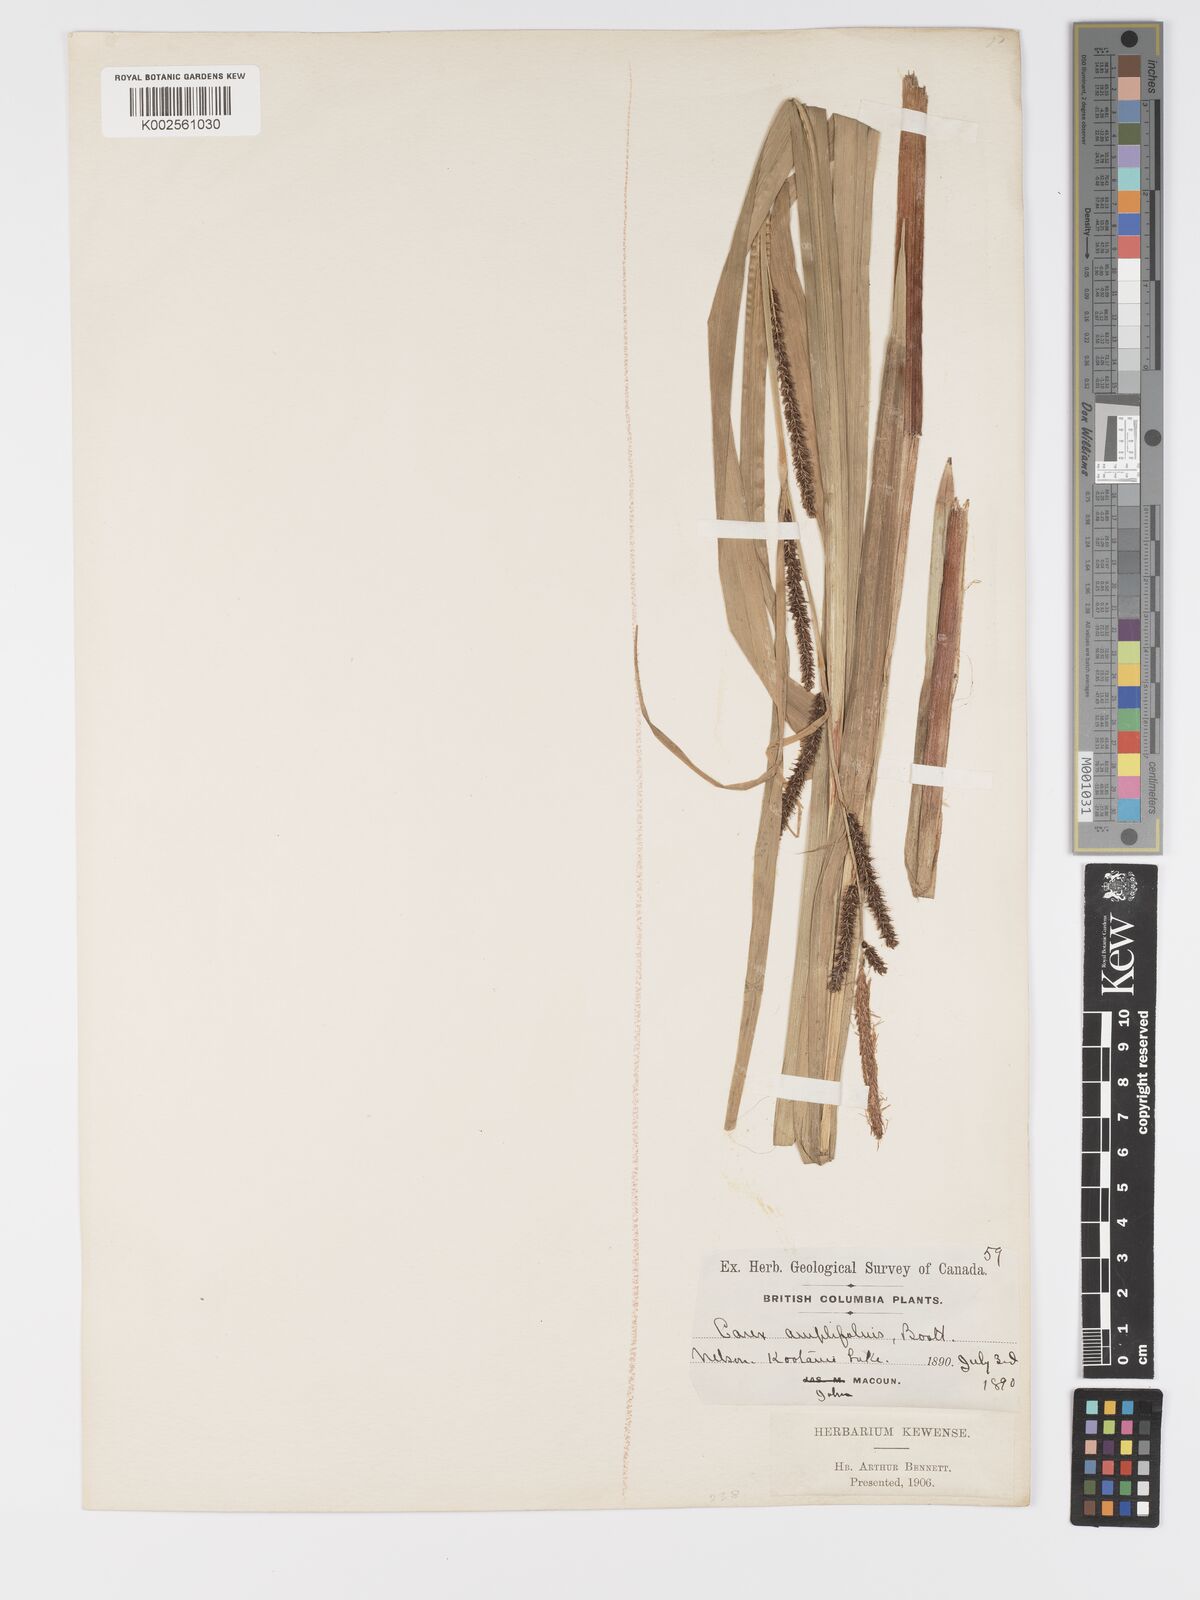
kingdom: Plantae
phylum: Tracheophyta
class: Liliopsida
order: Poales
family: Cyperaceae
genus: Carex
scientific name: Carex amplifolia
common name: Ample-leaved sedge
